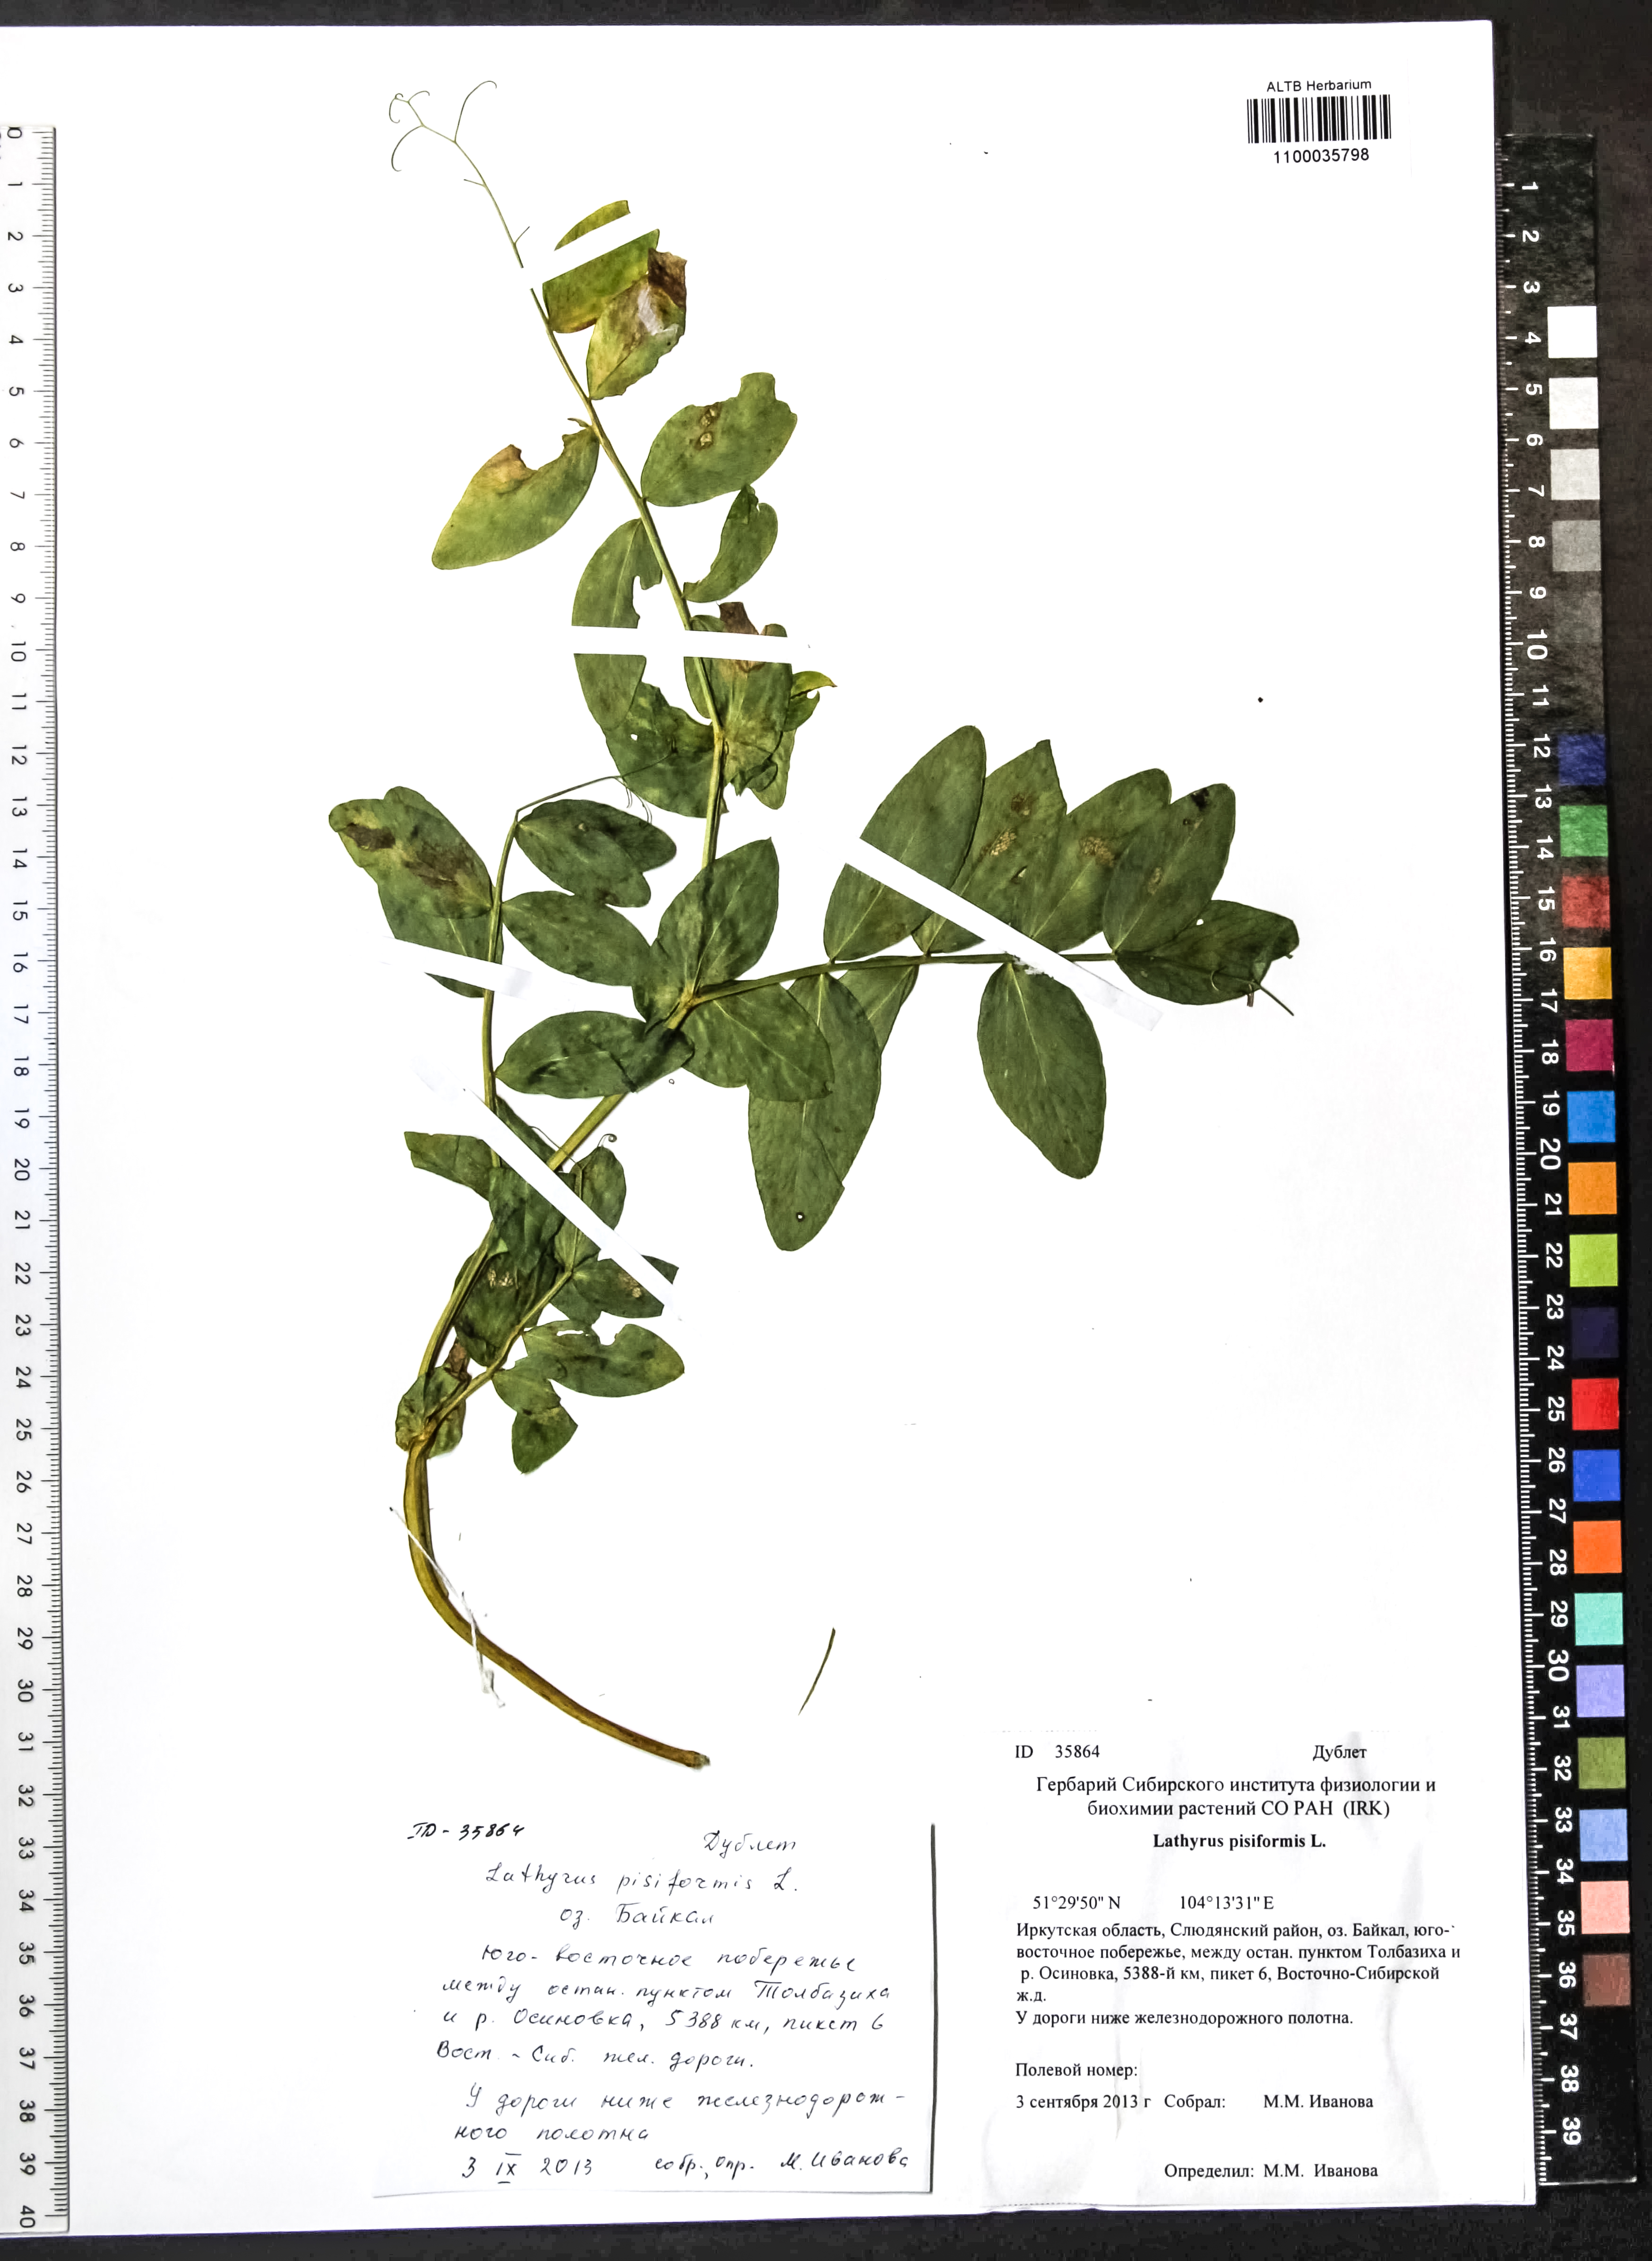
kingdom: Plantae
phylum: Tracheophyta
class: Magnoliopsida
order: Fabales
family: Fabaceae
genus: Lathyrus
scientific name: Lathyrus pisiformis
